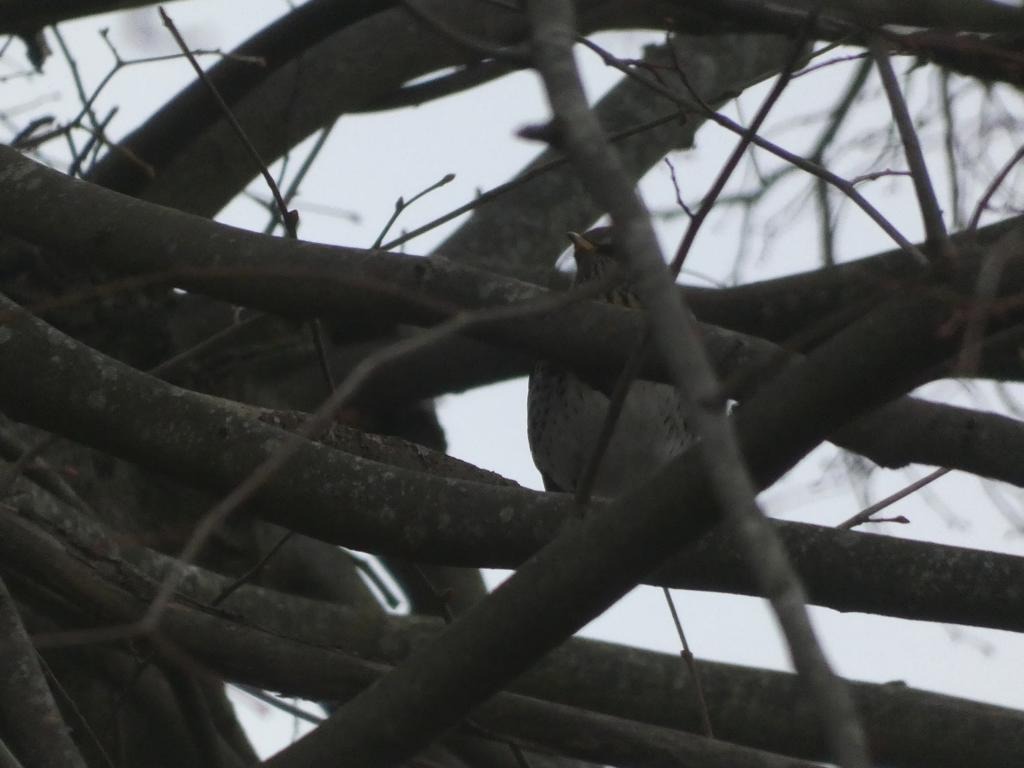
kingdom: Animalia
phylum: Chordata
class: Aves
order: Passeriformes
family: Turdidae
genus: Turdus
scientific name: Turdus pilaris
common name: Sjagger
